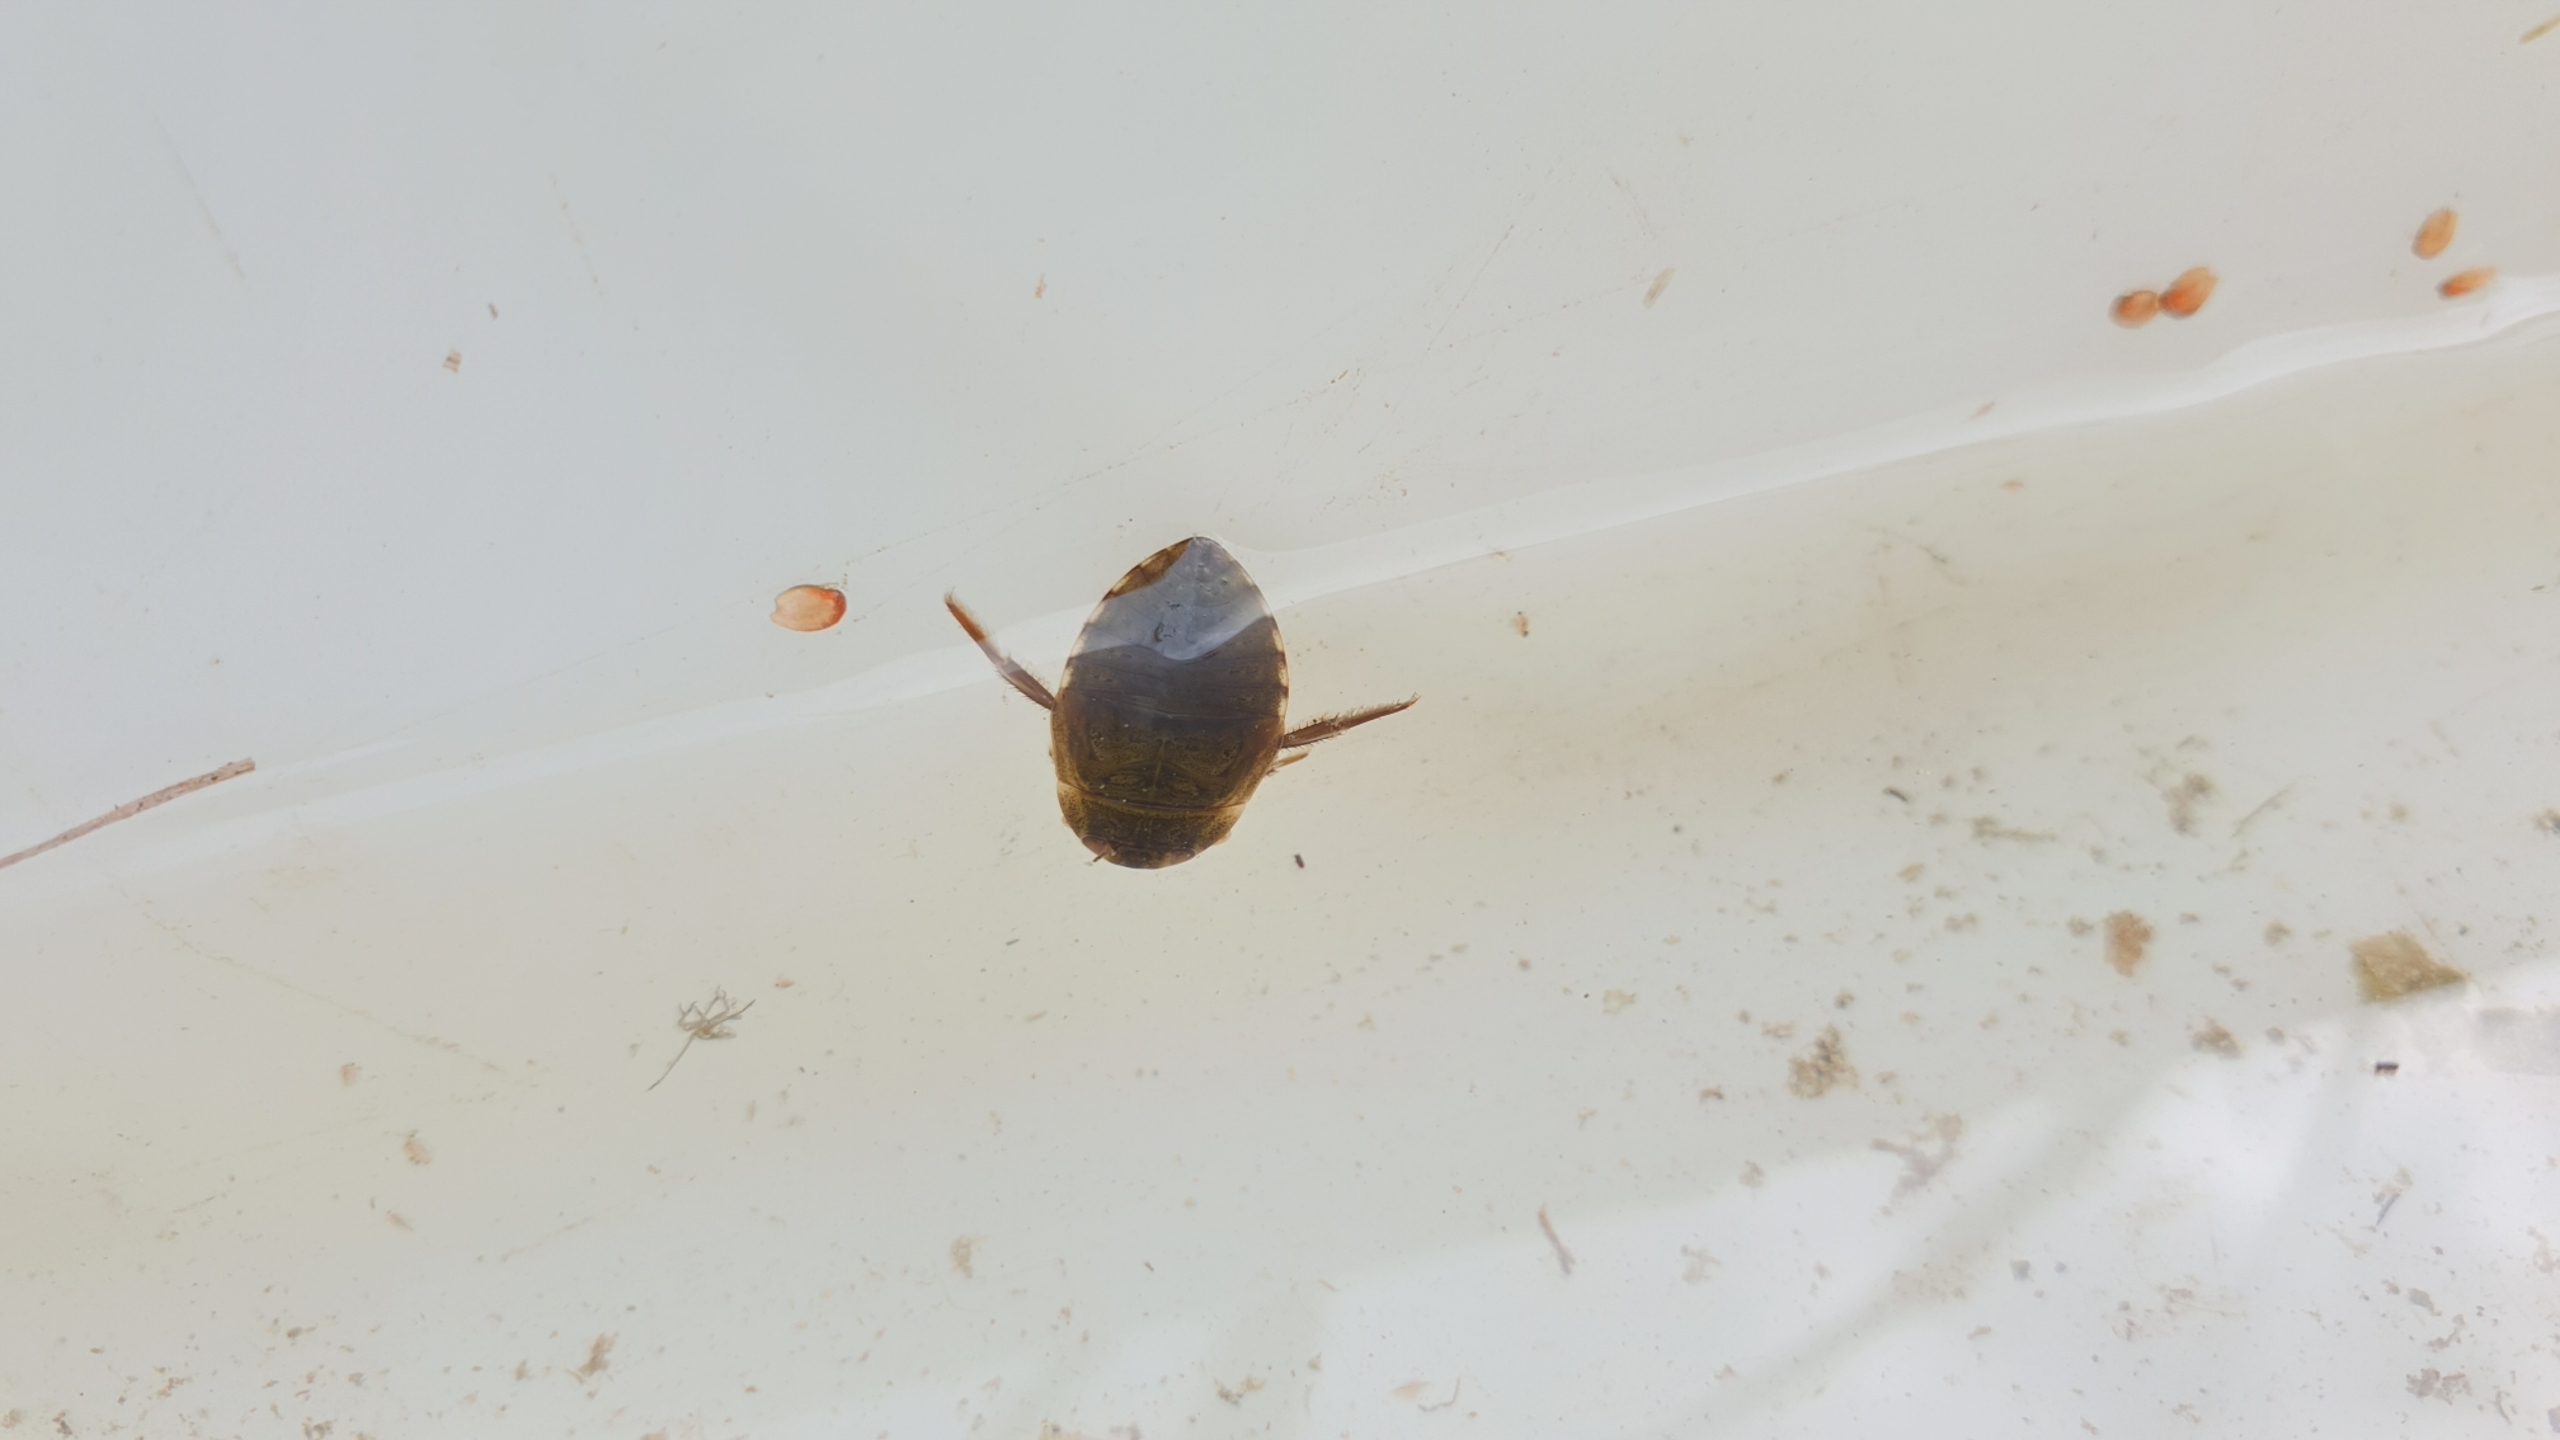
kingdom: Animalia
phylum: Arthropoda
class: Insecta
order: Hemiptera
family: Naucoridae
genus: Ilyocoris
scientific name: Ilyocoris cimicoides
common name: Vandrøver
